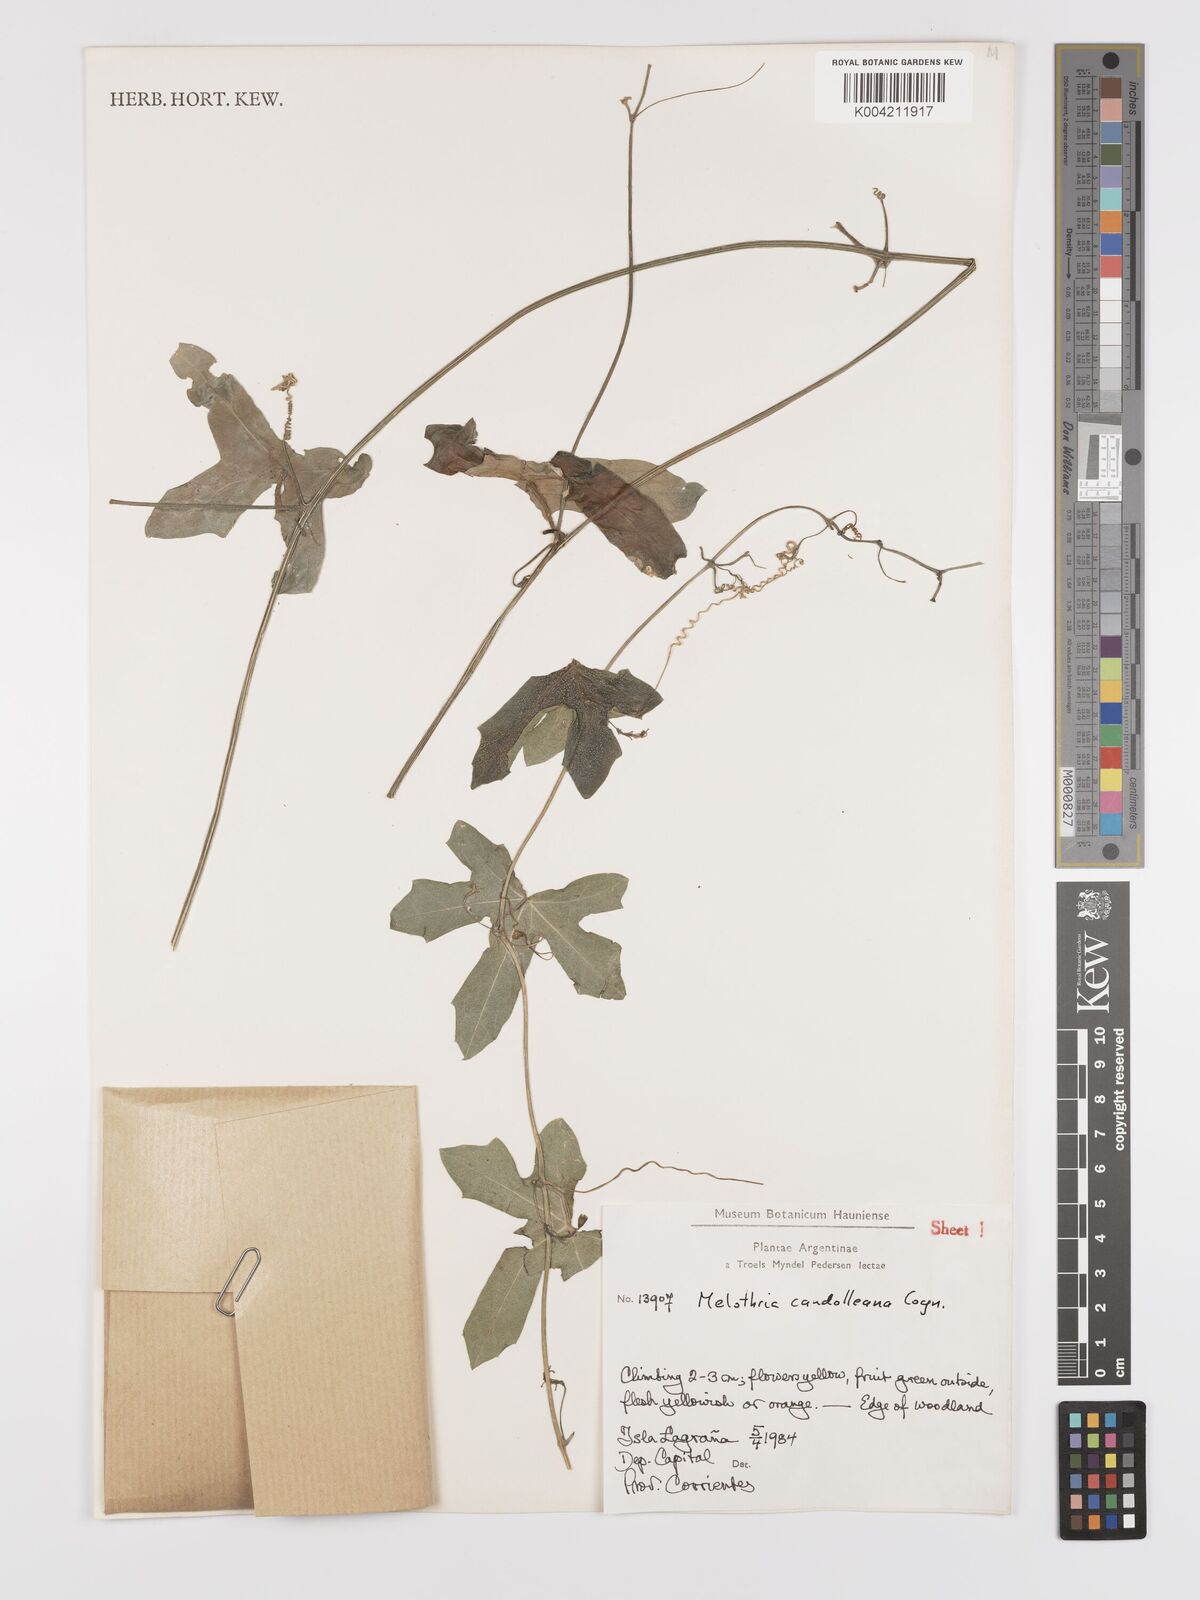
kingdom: Plantae
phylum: Tracheophyta
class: Magnoliopsida
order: Cucurbitales
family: Cucurbitaceae
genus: Melothria
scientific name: Melothria candolleana
